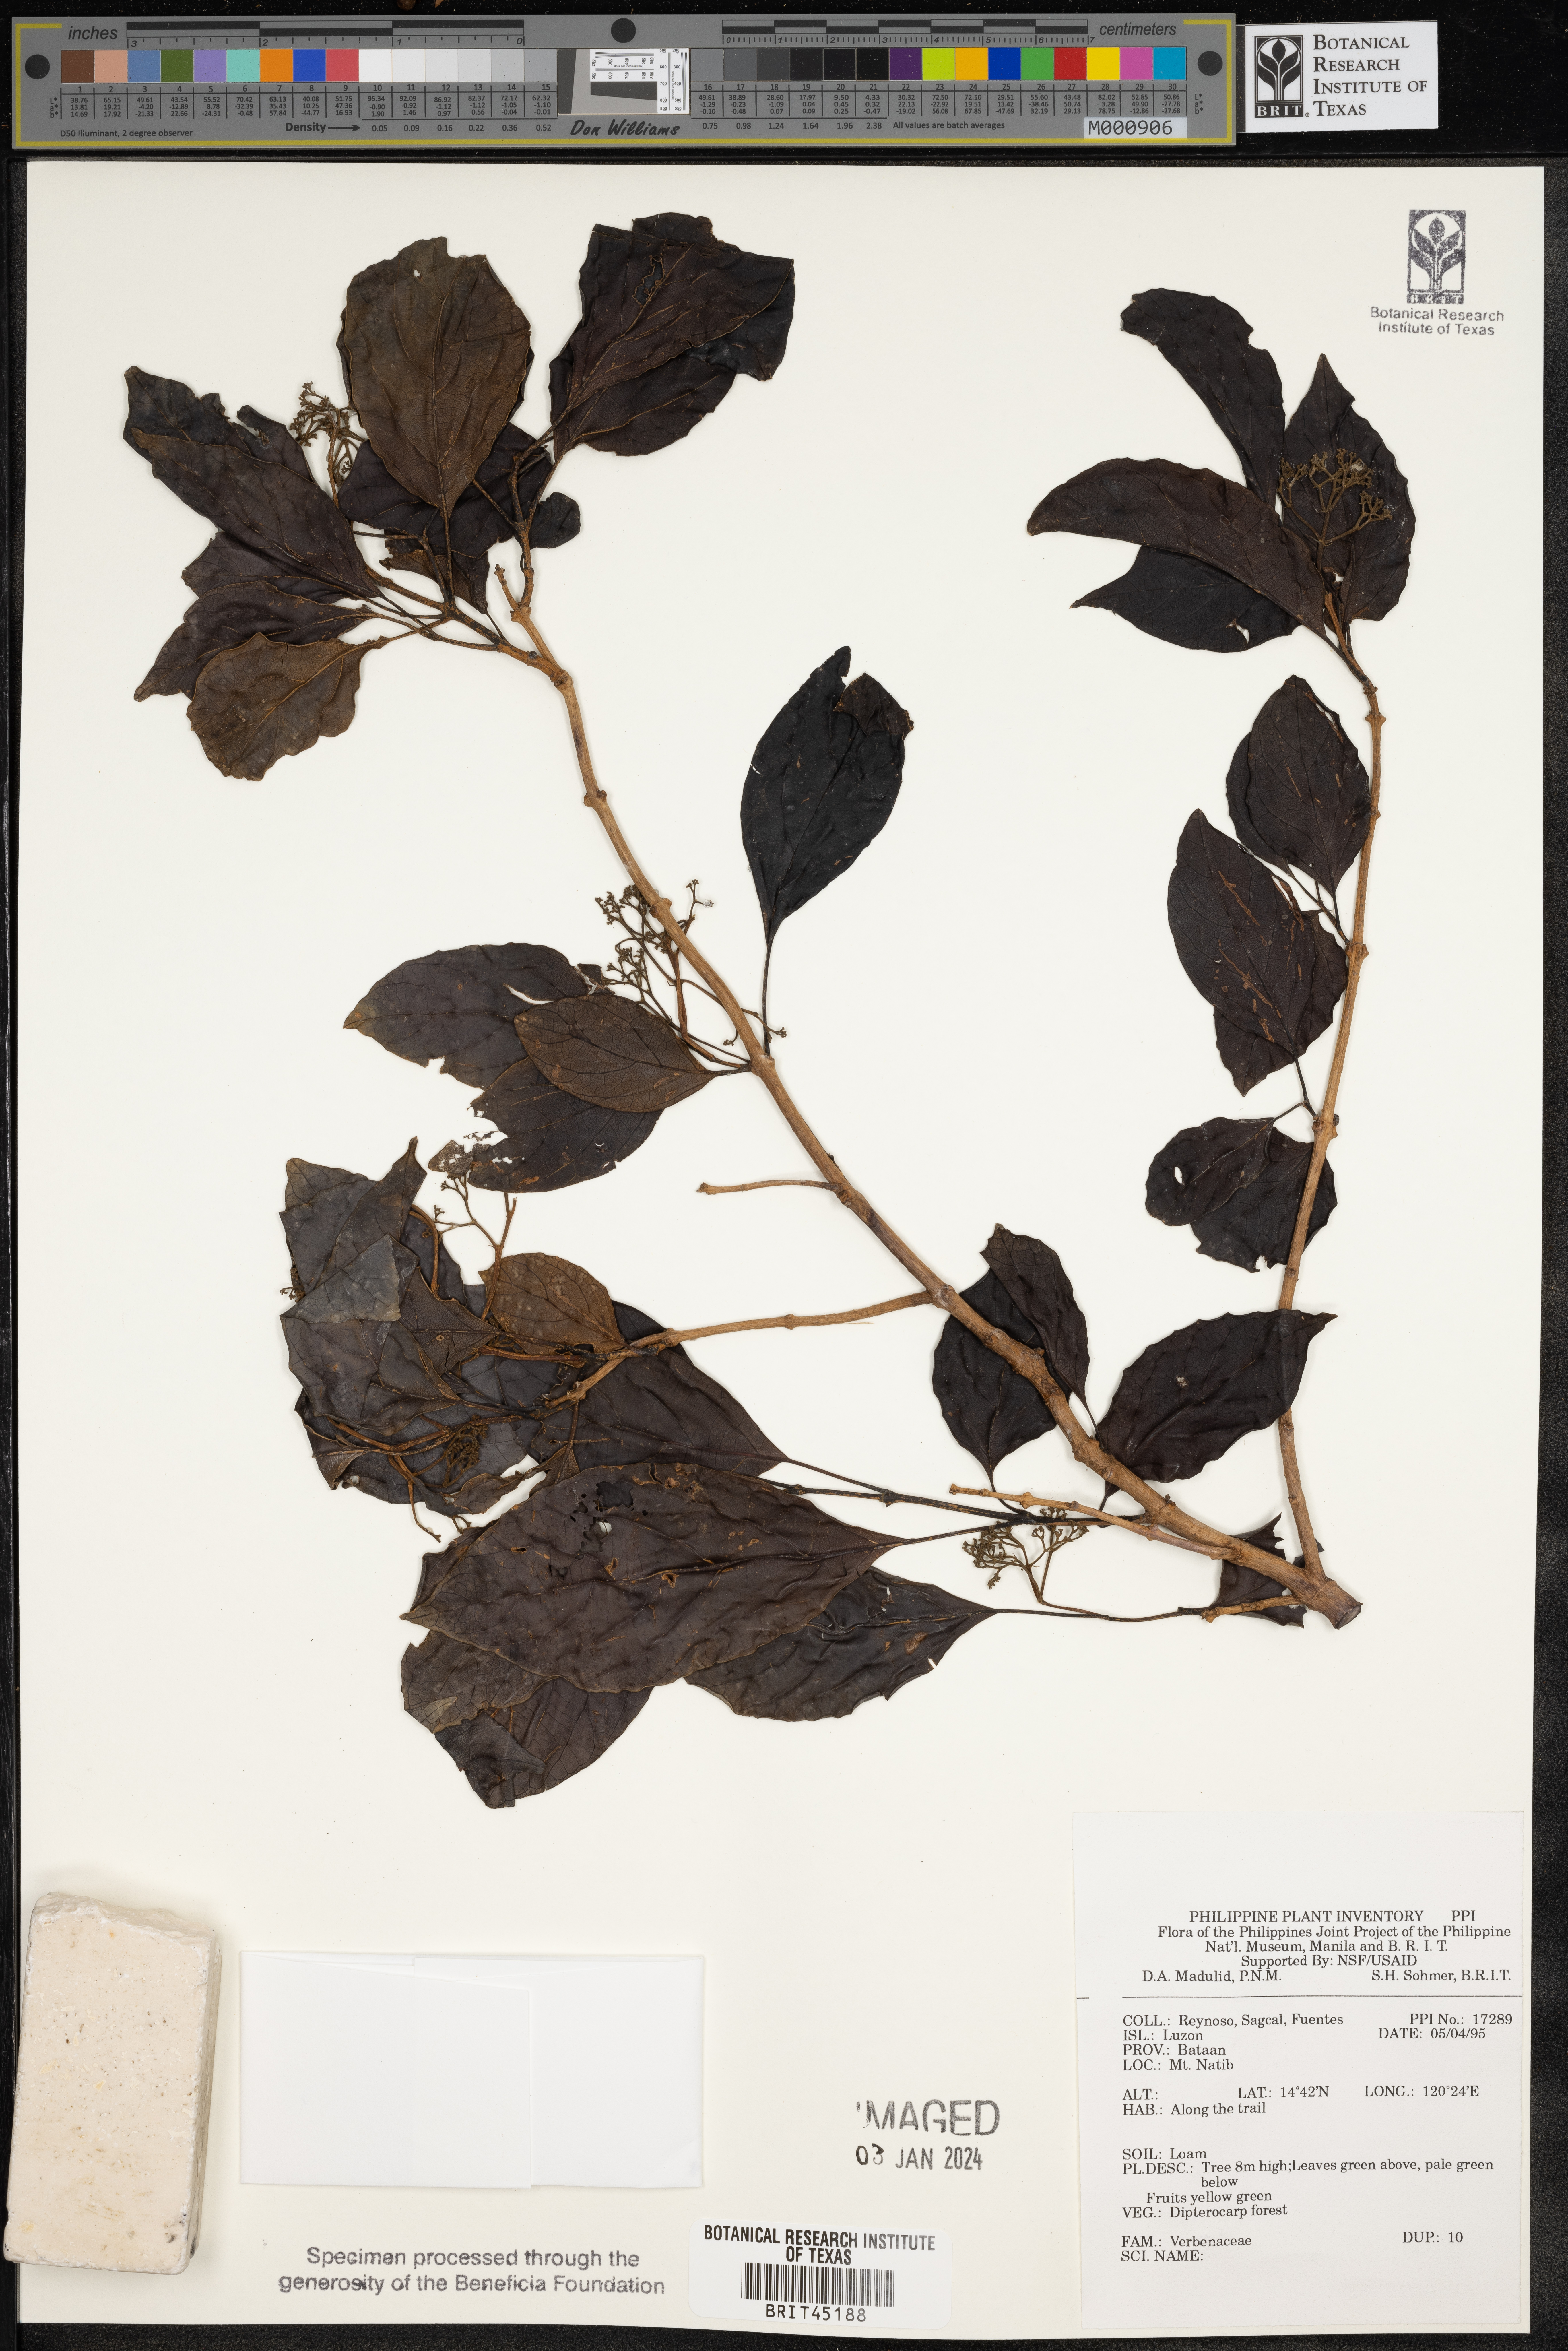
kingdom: Plantae
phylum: Tracheophyta
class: Magnoliopsida
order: Lamiales
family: Verbenaceae
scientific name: Verbenaceae
